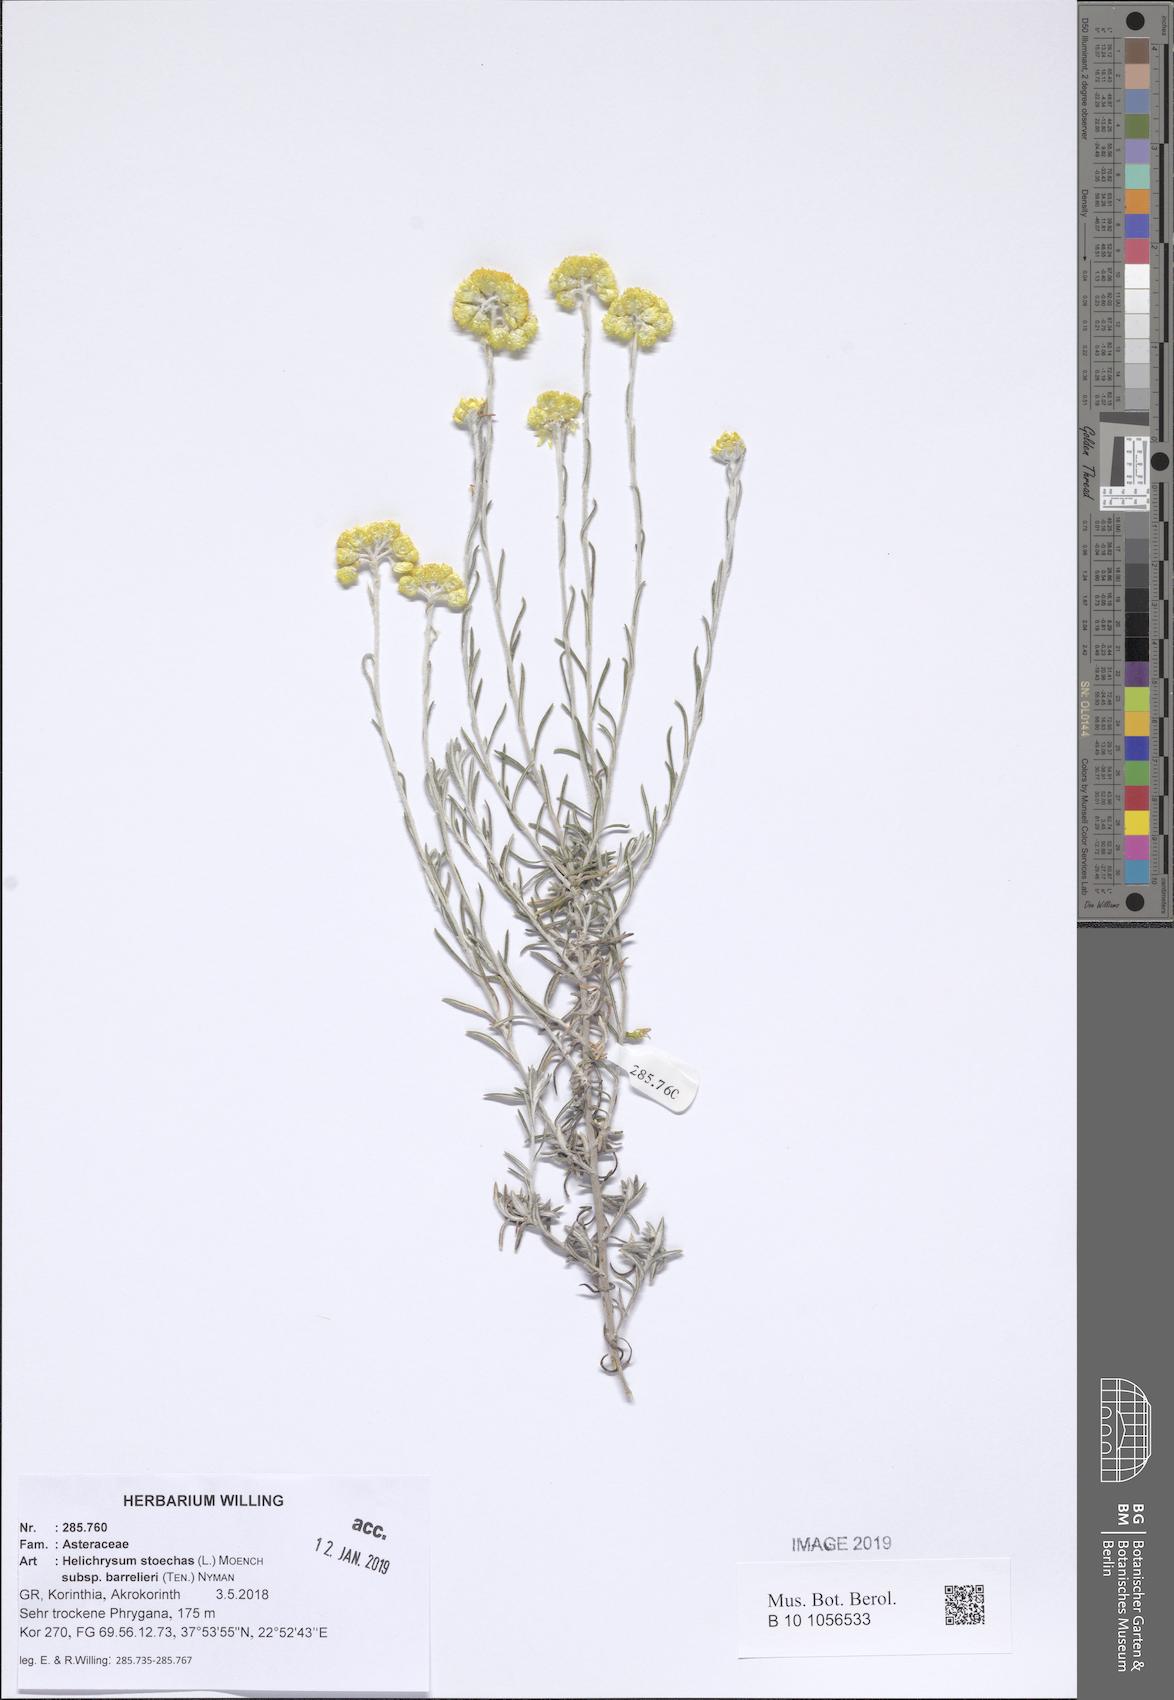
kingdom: Plantae
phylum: Tracheophyta
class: Magnoliopsida
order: Asterales
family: Asteraceae
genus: Helichrysum
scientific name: Helichrysum stoechas
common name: Goldilocks
